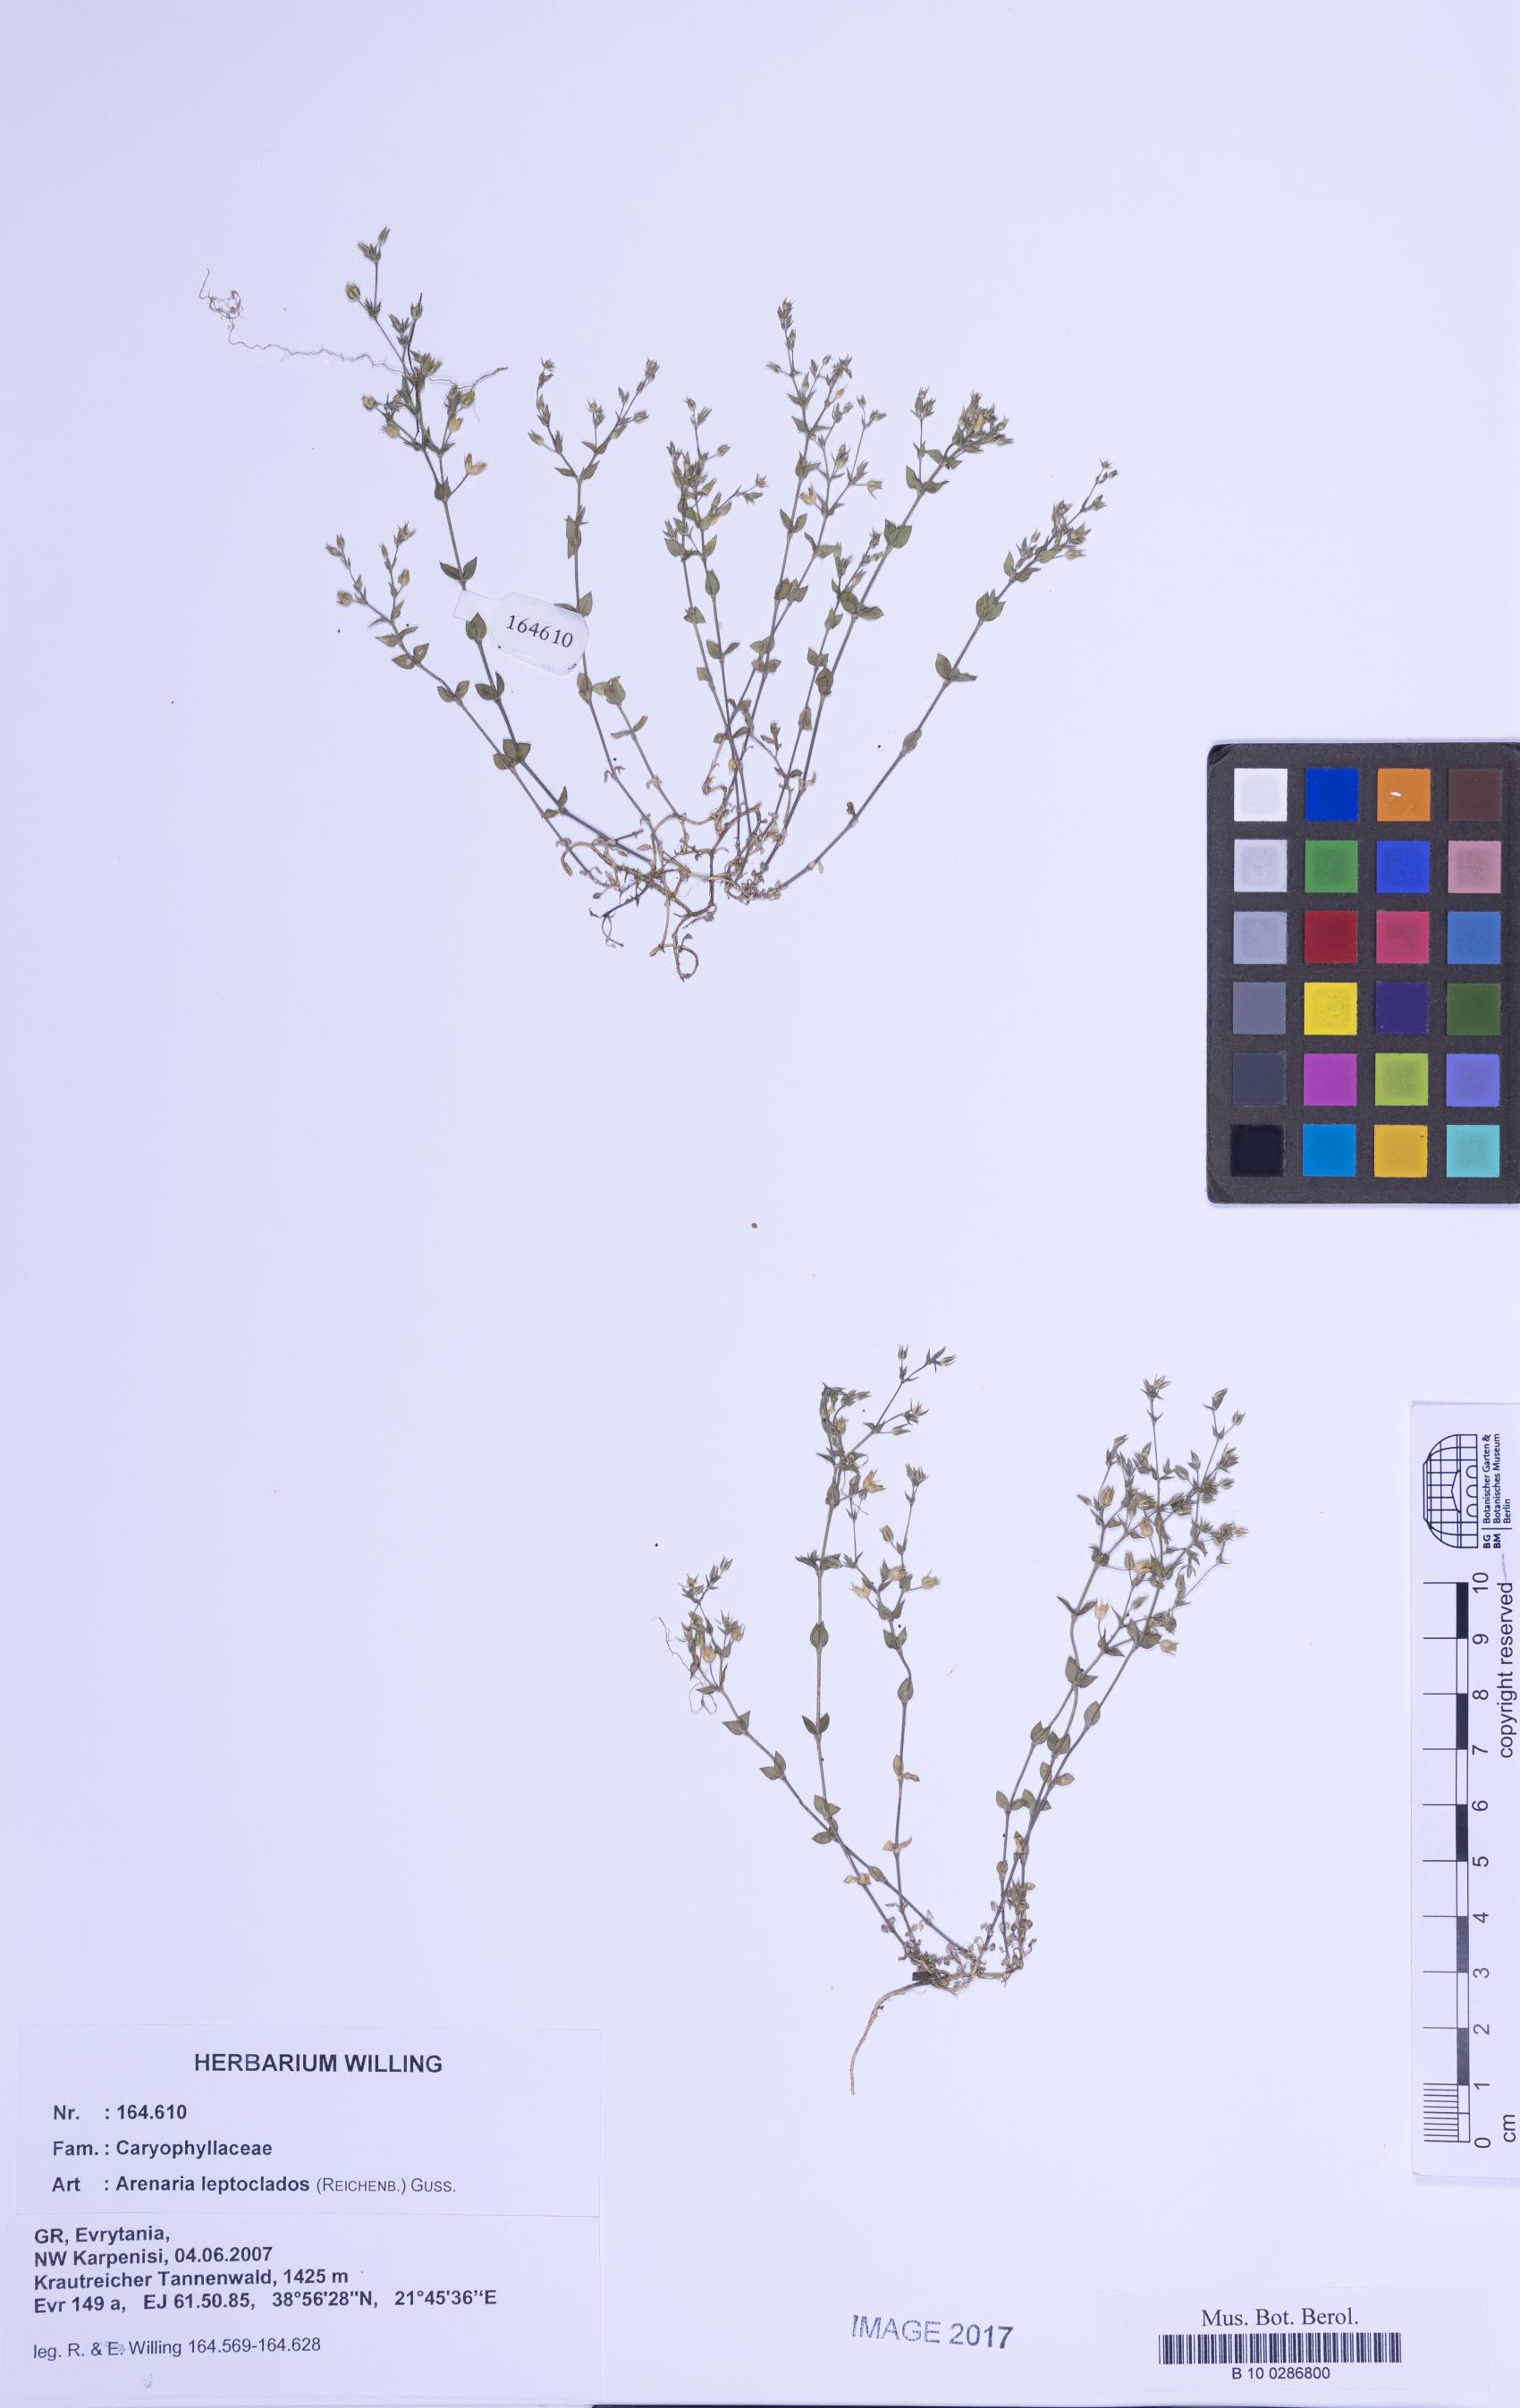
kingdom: Plantae
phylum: Tracheophyta
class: Magnoliopsida
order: Caryophyllales
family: Caryophyllaceae
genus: Arenaria
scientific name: Arenaria leptoclados
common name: Thyme-leaved sandwort
